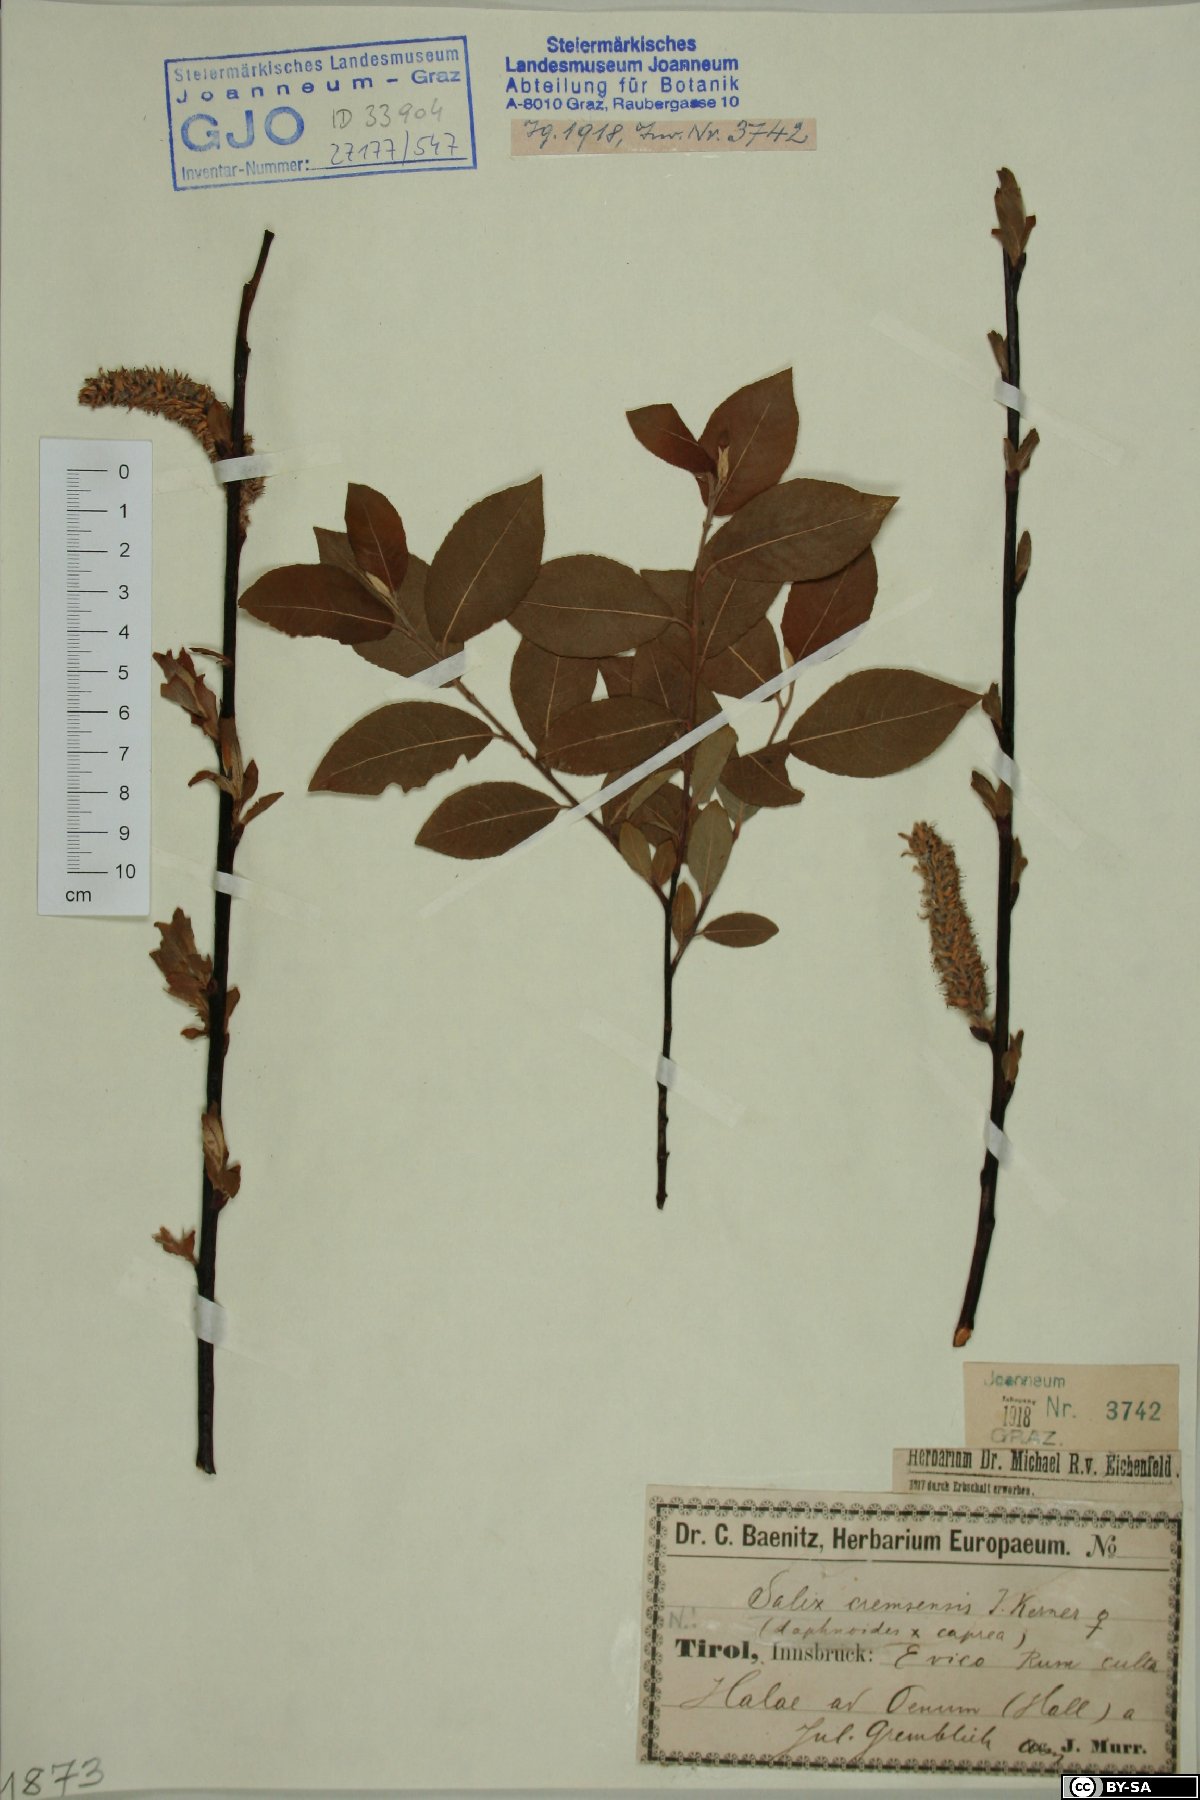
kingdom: Plantae
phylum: Tracheophyta
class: Magnoliopsida
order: Malpighiales
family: Salicaceae
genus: Salix
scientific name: Salix erdingeri
